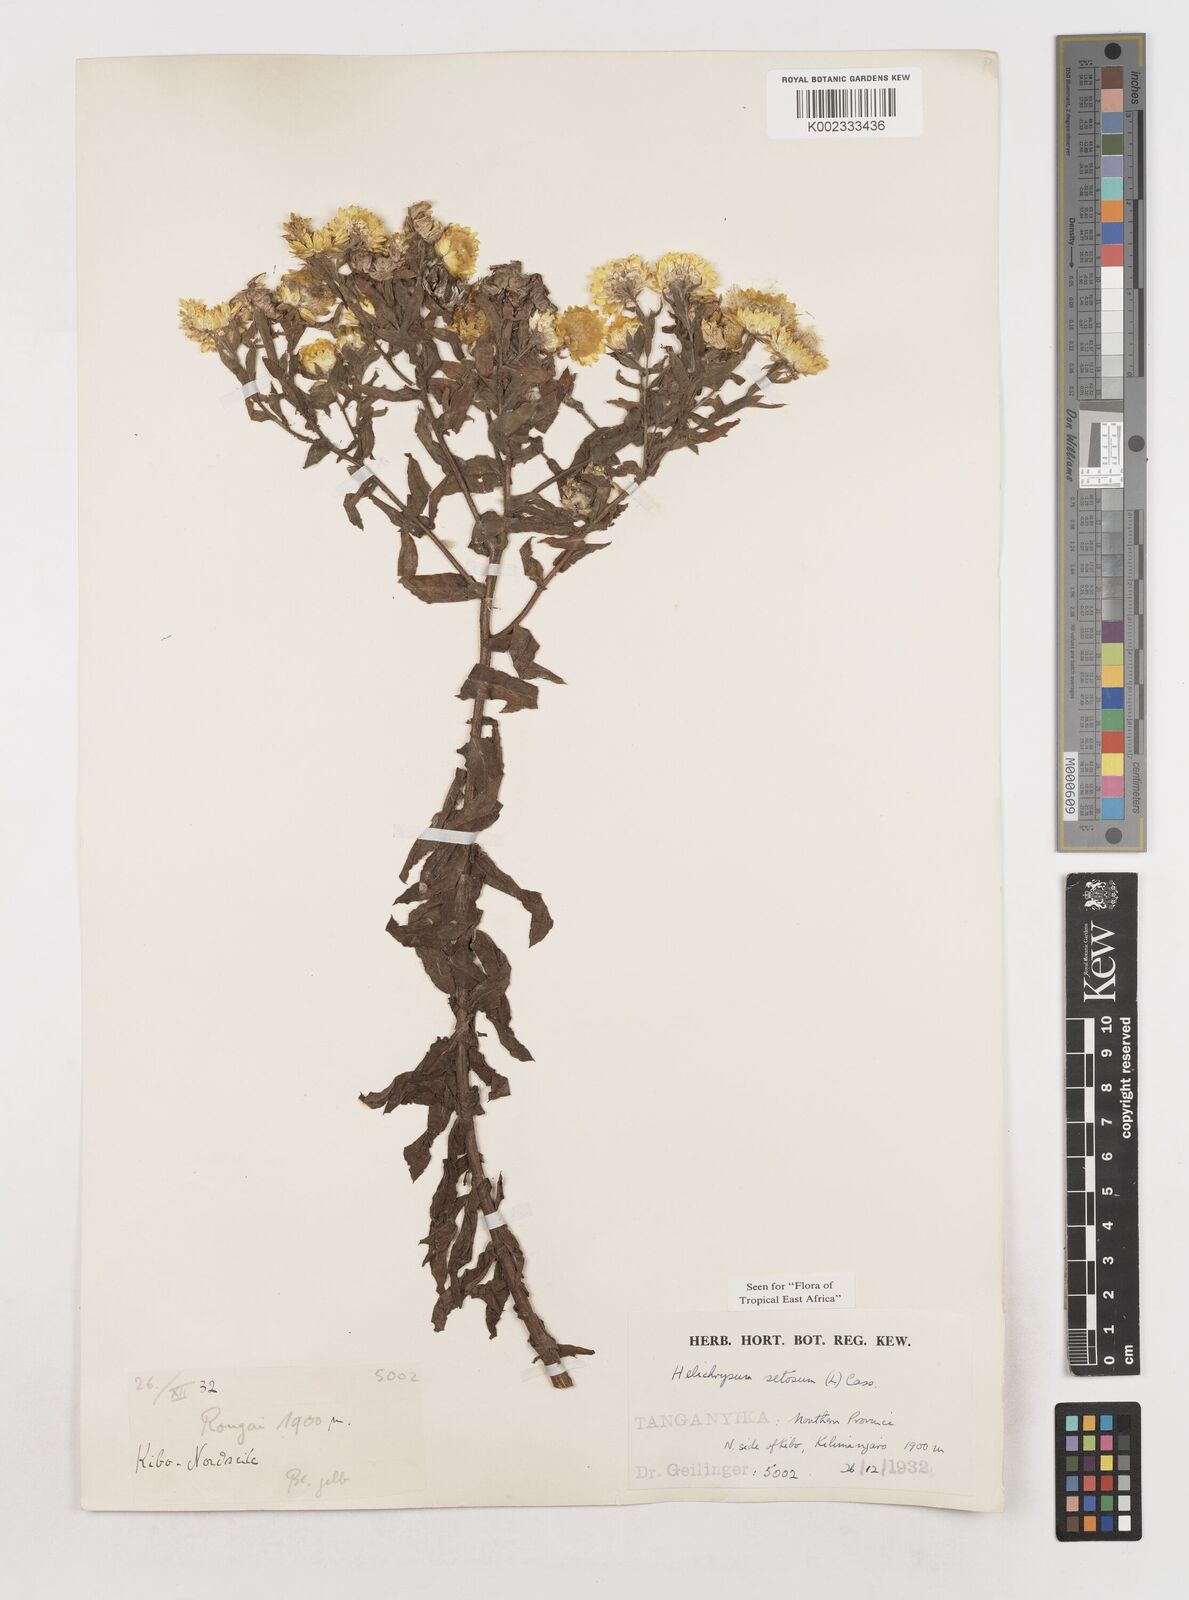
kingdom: Plantae
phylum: Tracheophyta
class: Magnoliopsida
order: Asterales
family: Asteraceae
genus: Helichrysum
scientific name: Helichrysum setosum
